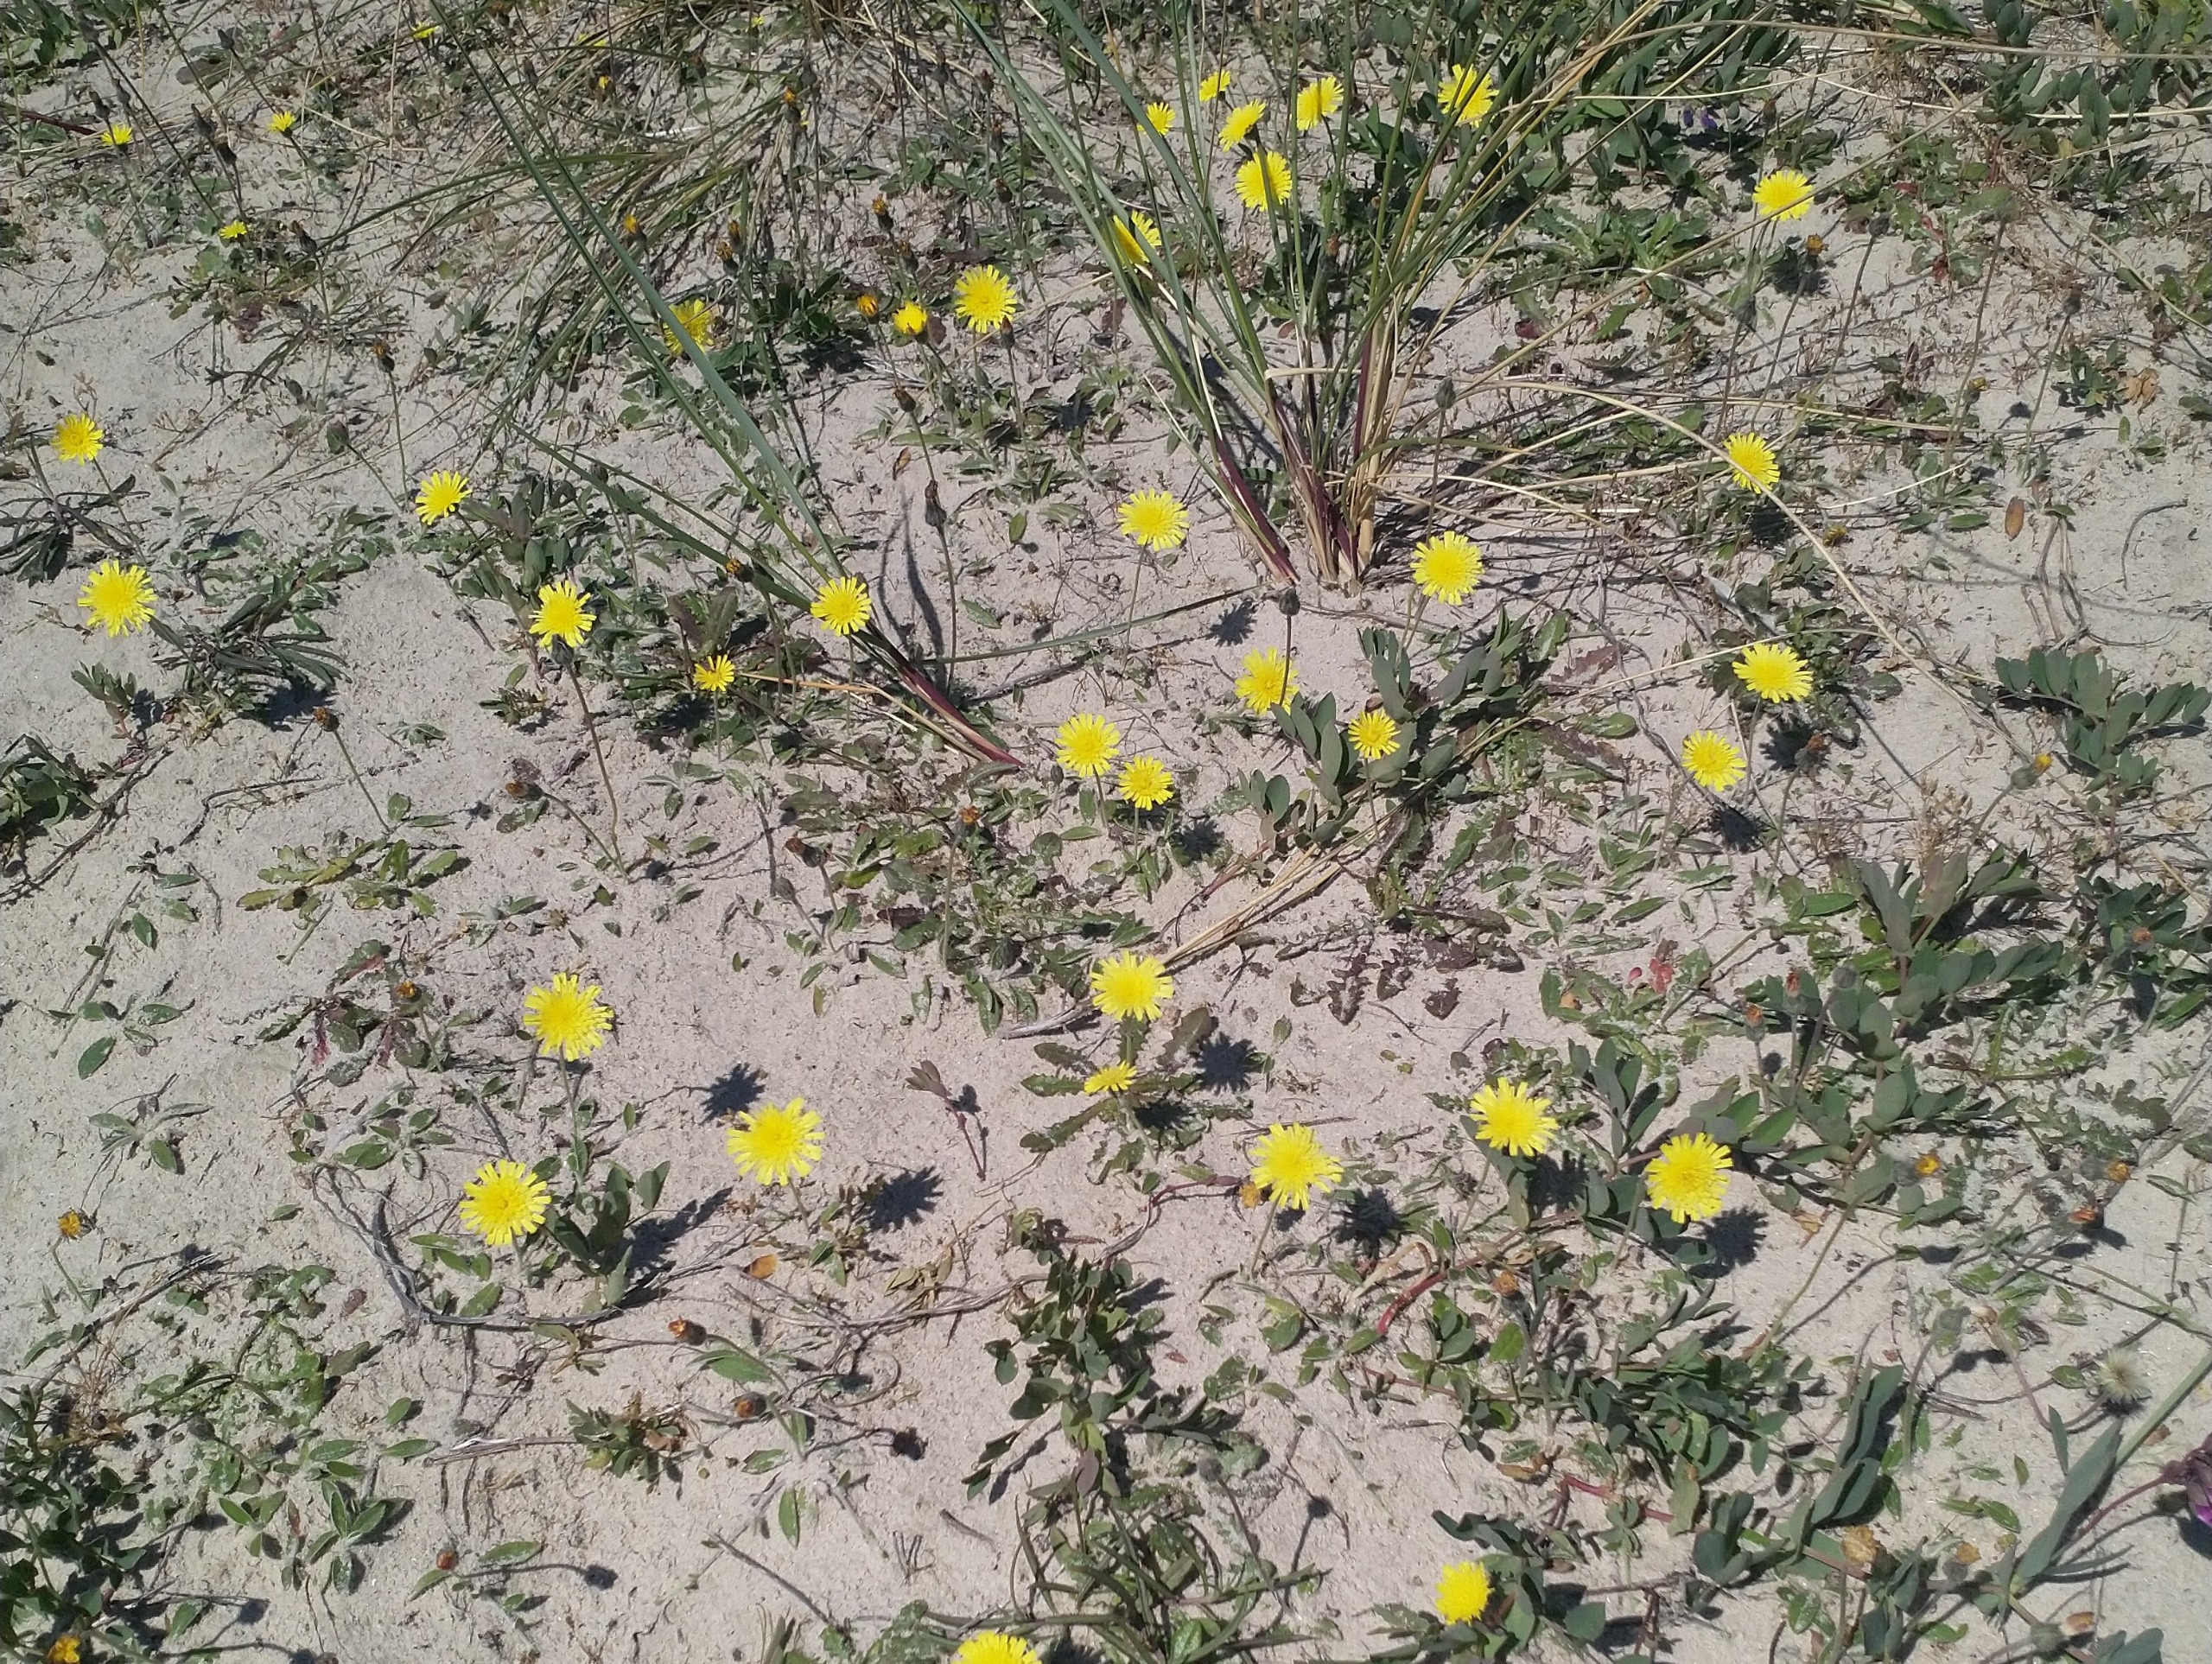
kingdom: Plantae
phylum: Tracheophyta
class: Magnoliopsida
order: Asterales
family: Asteraceae
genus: Pilosella
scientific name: Pilosella officinarum
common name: Håret høgeurt
